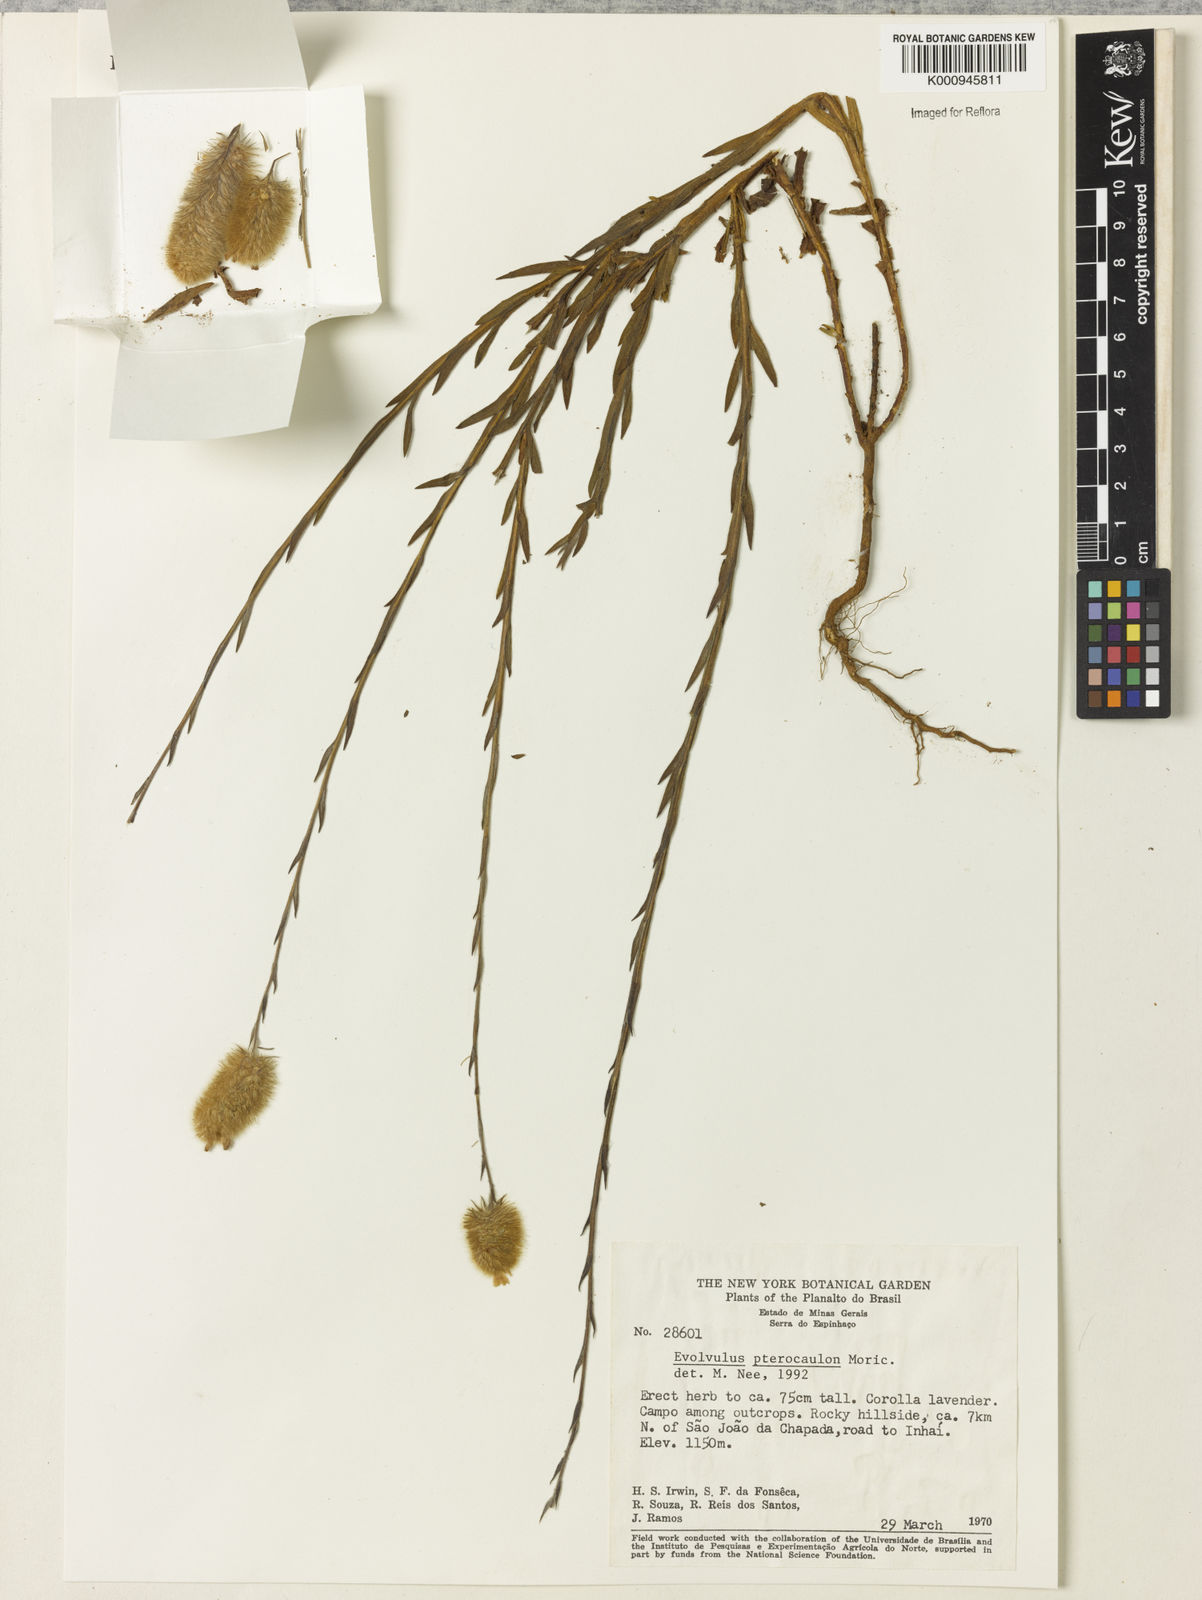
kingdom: Plantae
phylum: Tracheophyta
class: Magnoliopsida
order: Solanales
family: Convolvulaceae
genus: Evolvulus
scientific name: Evolvulus pterocaulon
